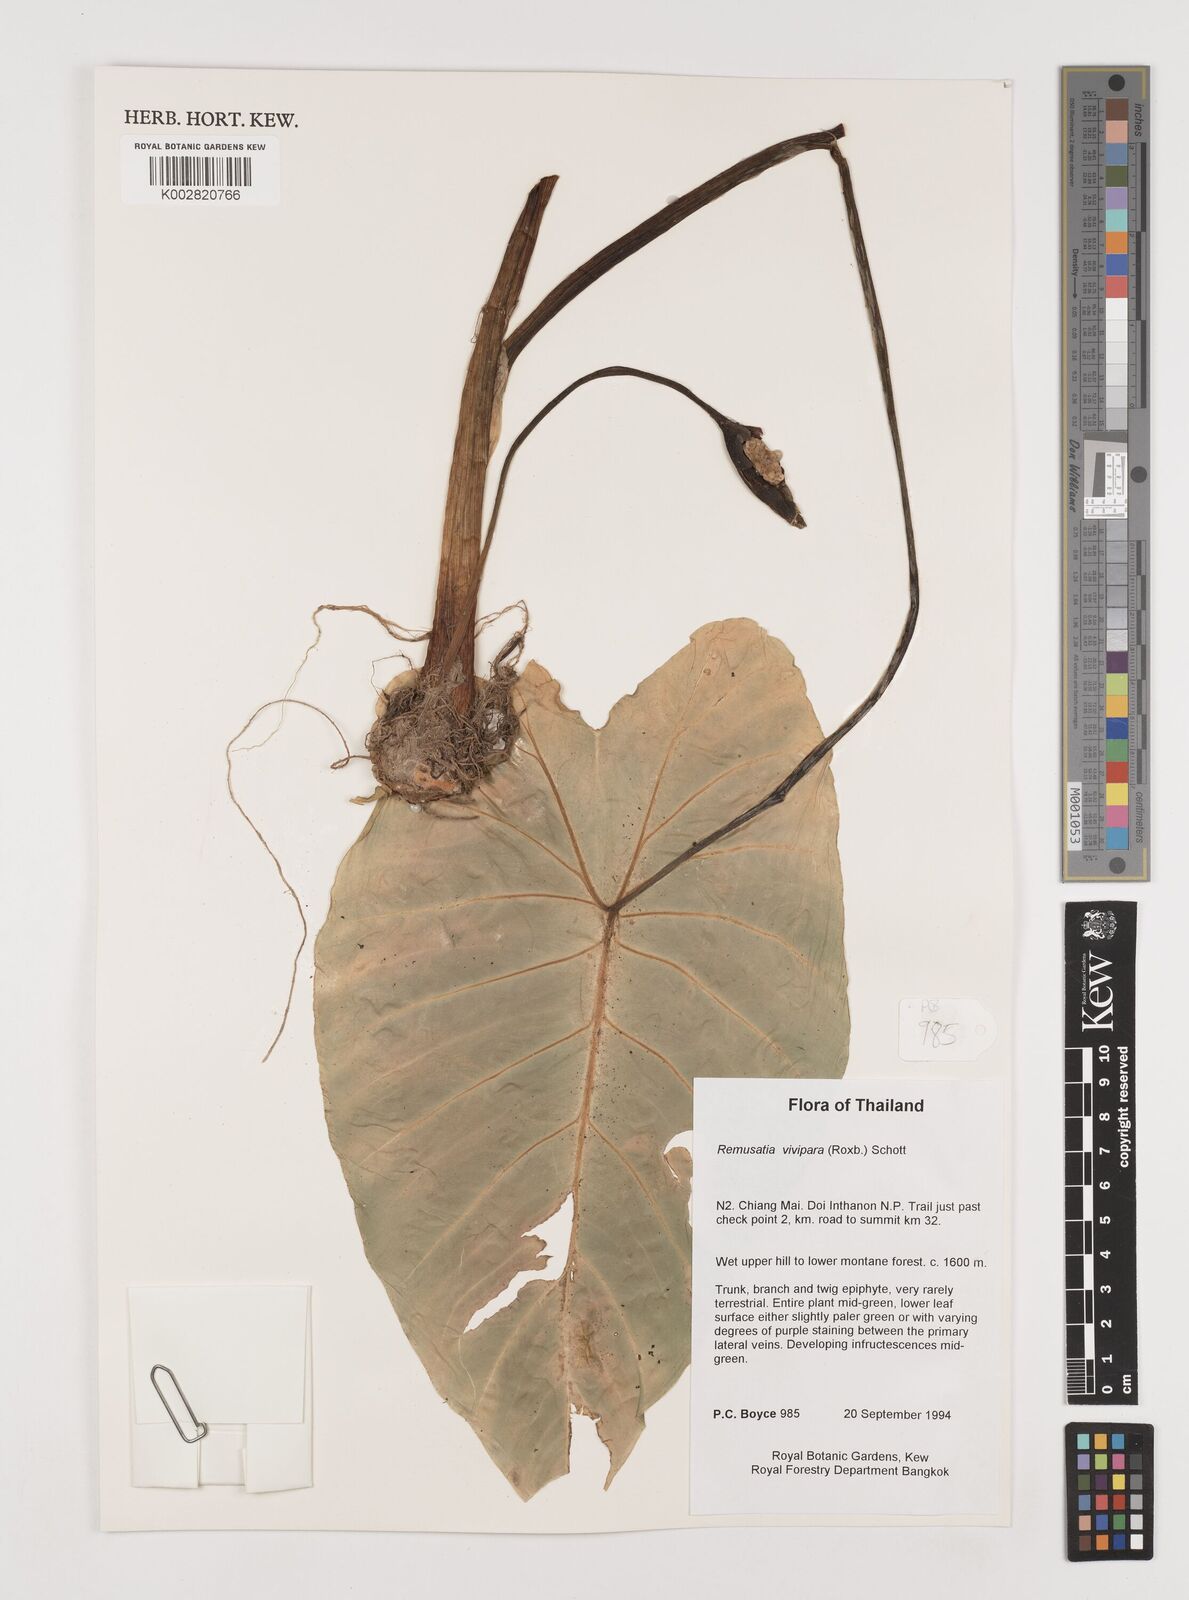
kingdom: Plantae
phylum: Tracheophyta
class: Liliopsida
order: Alismatales
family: Araceae
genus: Remusatia
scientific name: Remusatia vivipara
